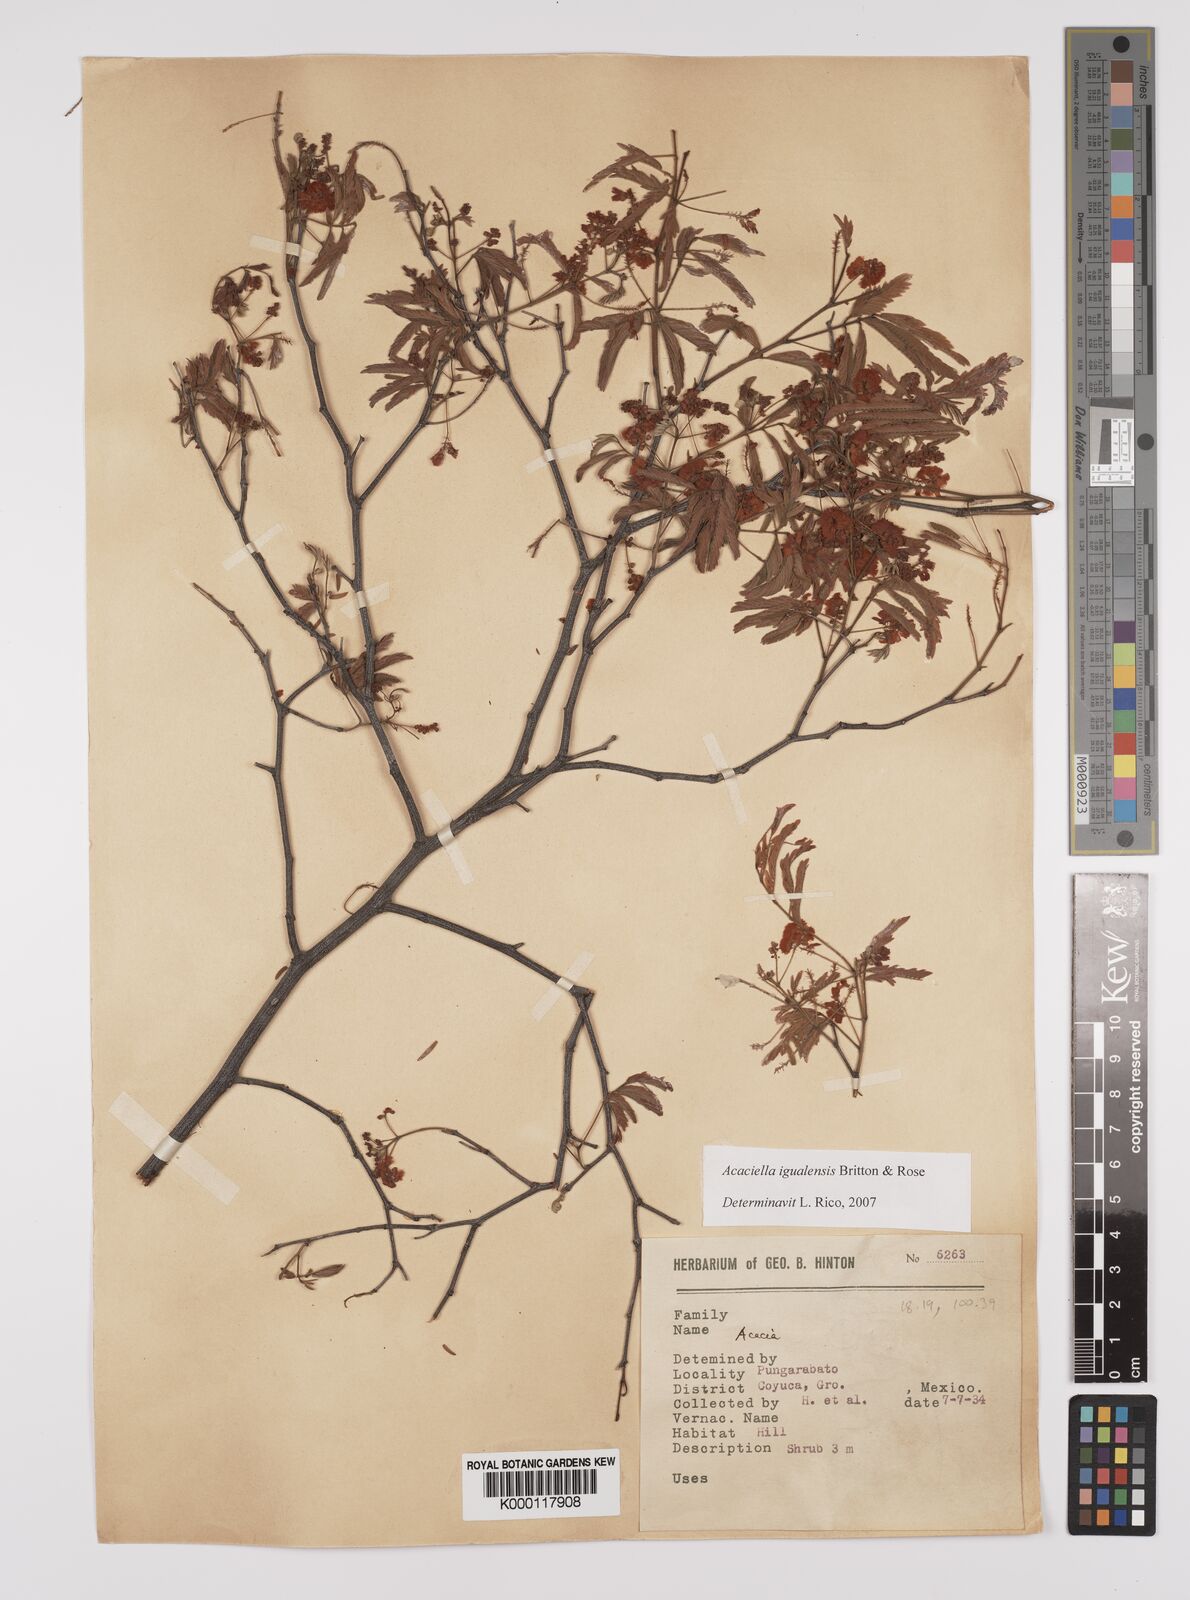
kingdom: Plantae
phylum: Tracheophyta
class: Magnoliopsida
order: Fabales
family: Fabaceae
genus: Acaciella
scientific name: Acaciella igualensis
